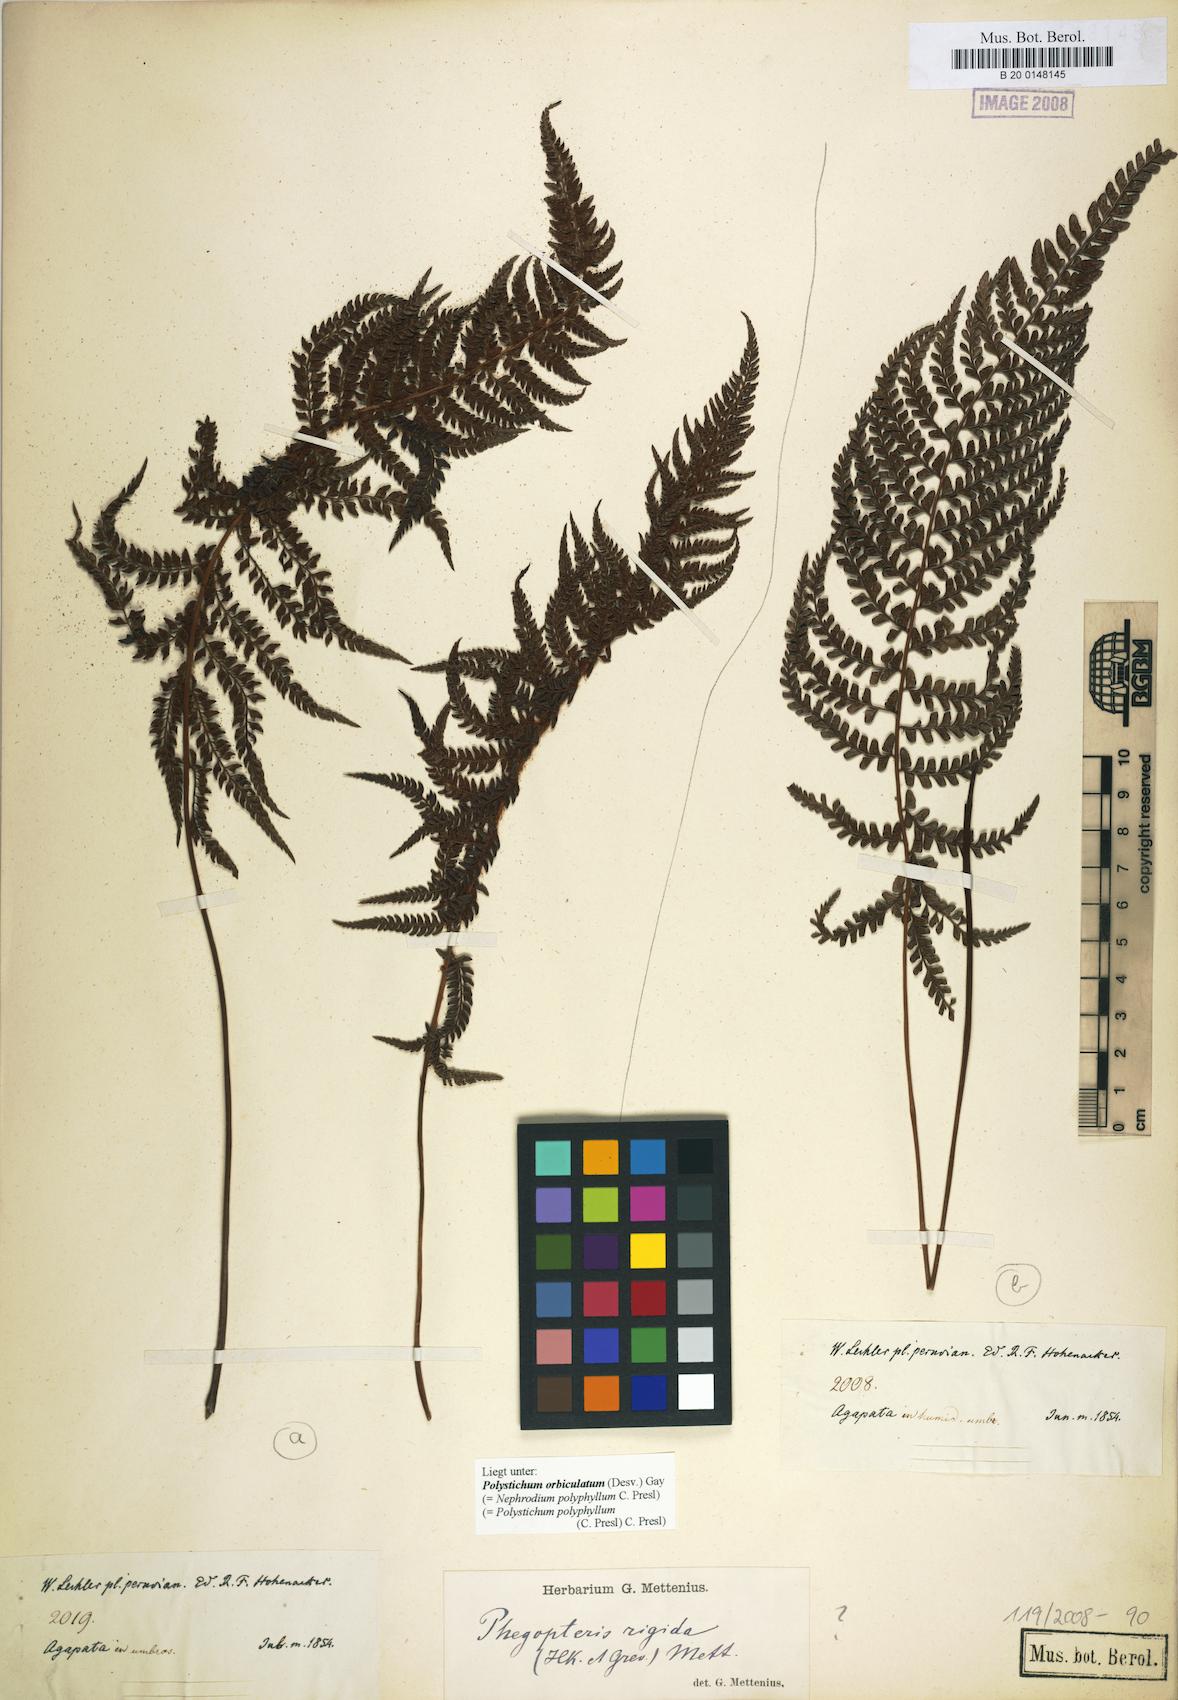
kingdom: Plantae
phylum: Tracheophyta
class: Polypodiopsida
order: Polypodiales
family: Dryopteridaceae
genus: Polystichum
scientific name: Polystichum orbiculatum
